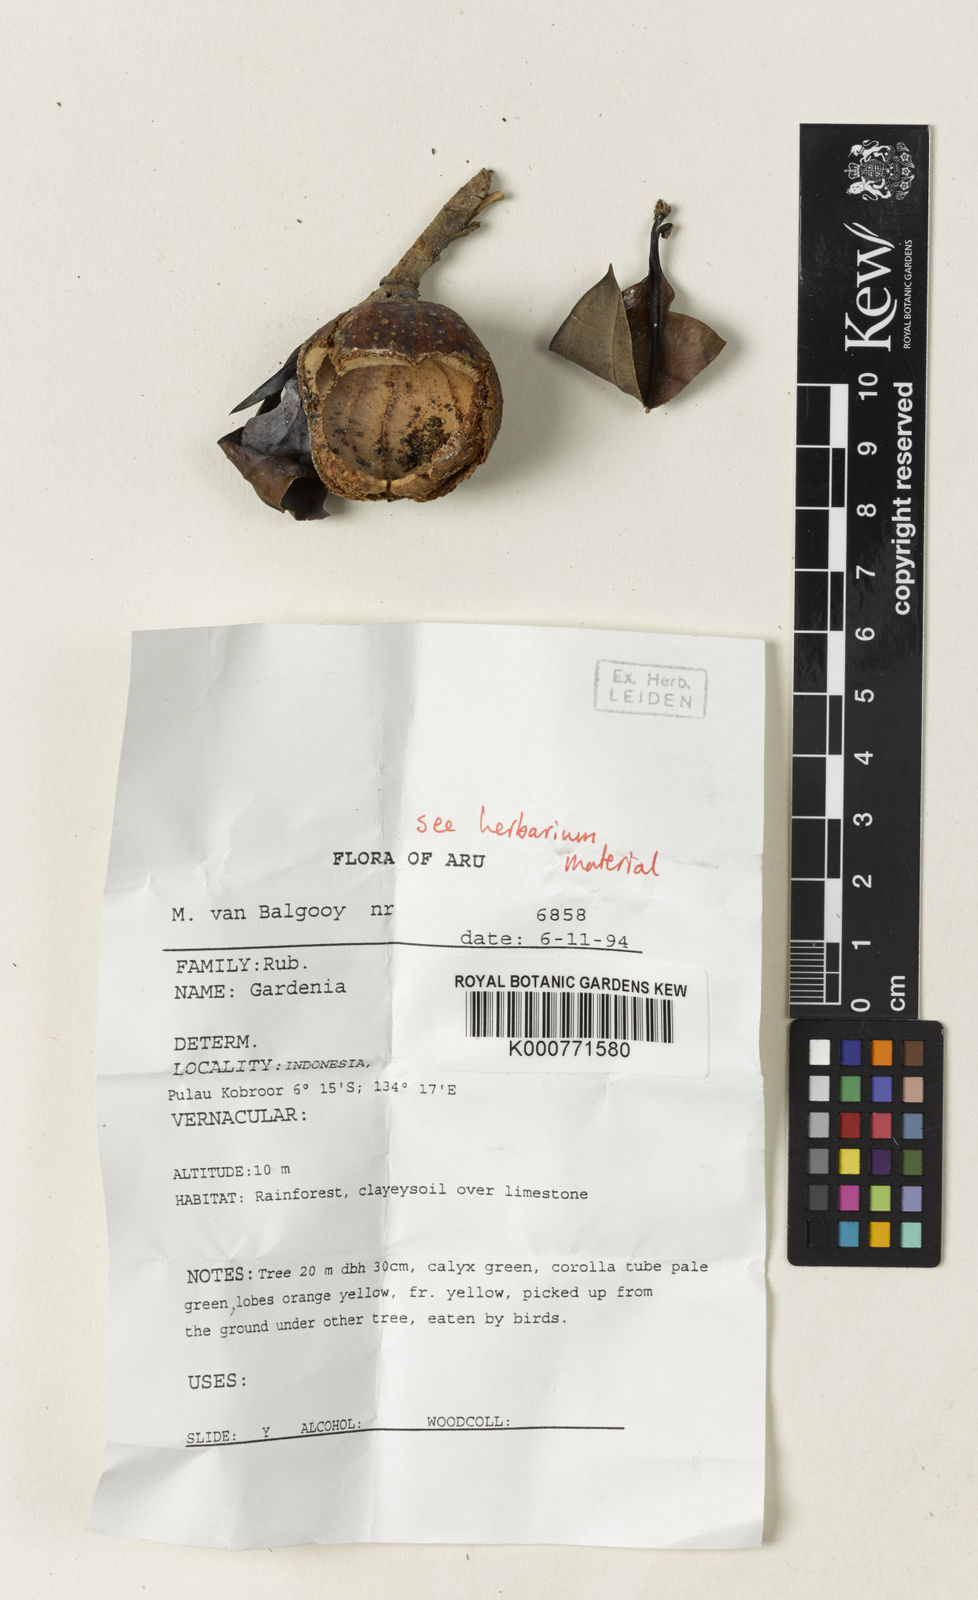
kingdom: Plantae
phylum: Tracheophyta
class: Magnoliopsida
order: Gentianales
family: Rubiaceae
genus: Gardenia
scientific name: Gardenia
